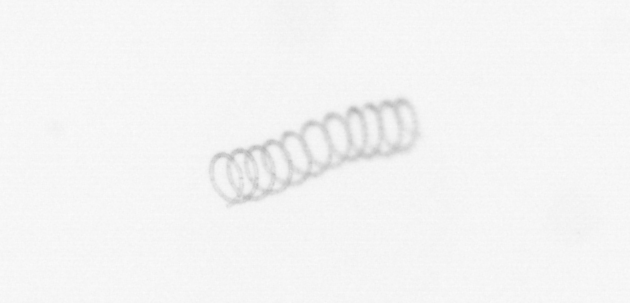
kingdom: Chromista
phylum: Ochrophyta
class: Bacillariophyceae
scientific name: Bacillariophyceae
